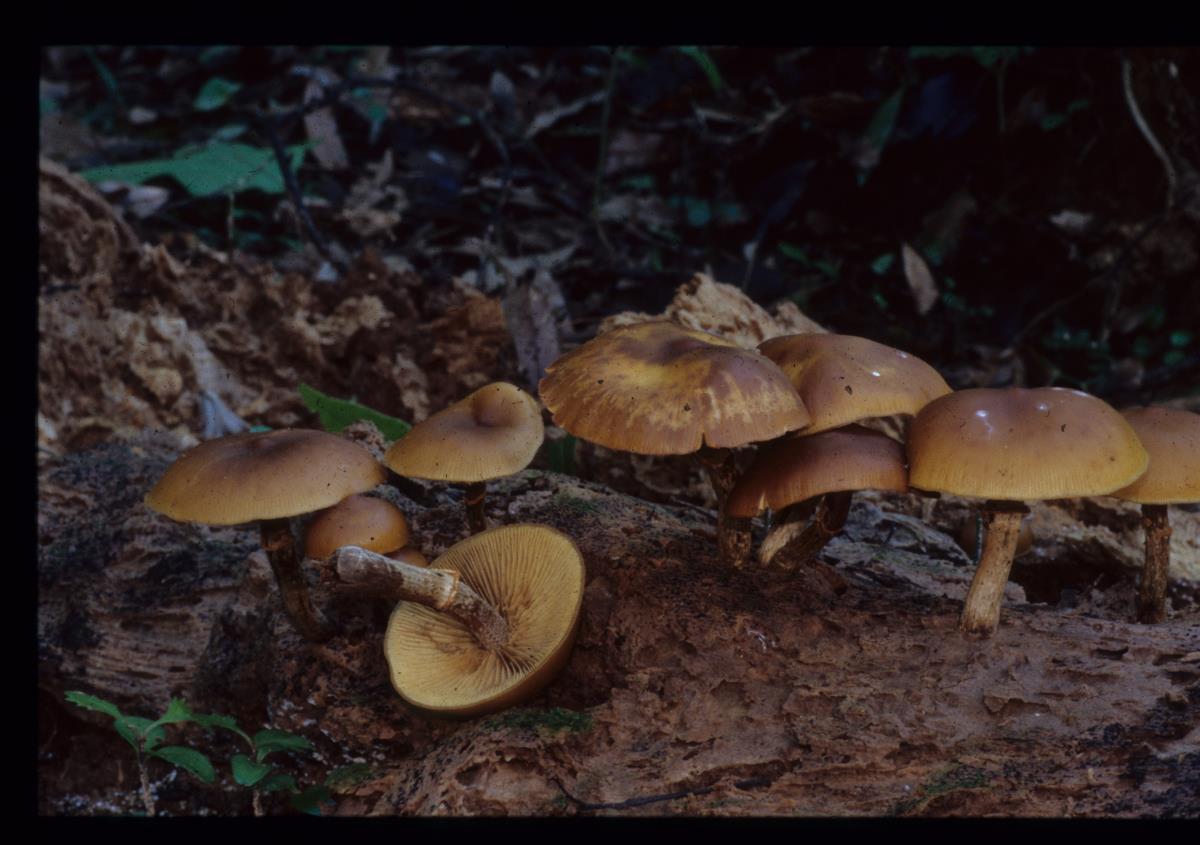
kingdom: Fungi
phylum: Basidiomycota
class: Agaricomycetes
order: Agaricales
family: Hymenogastraceae
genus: Galerina
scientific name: Galerina patagonica
